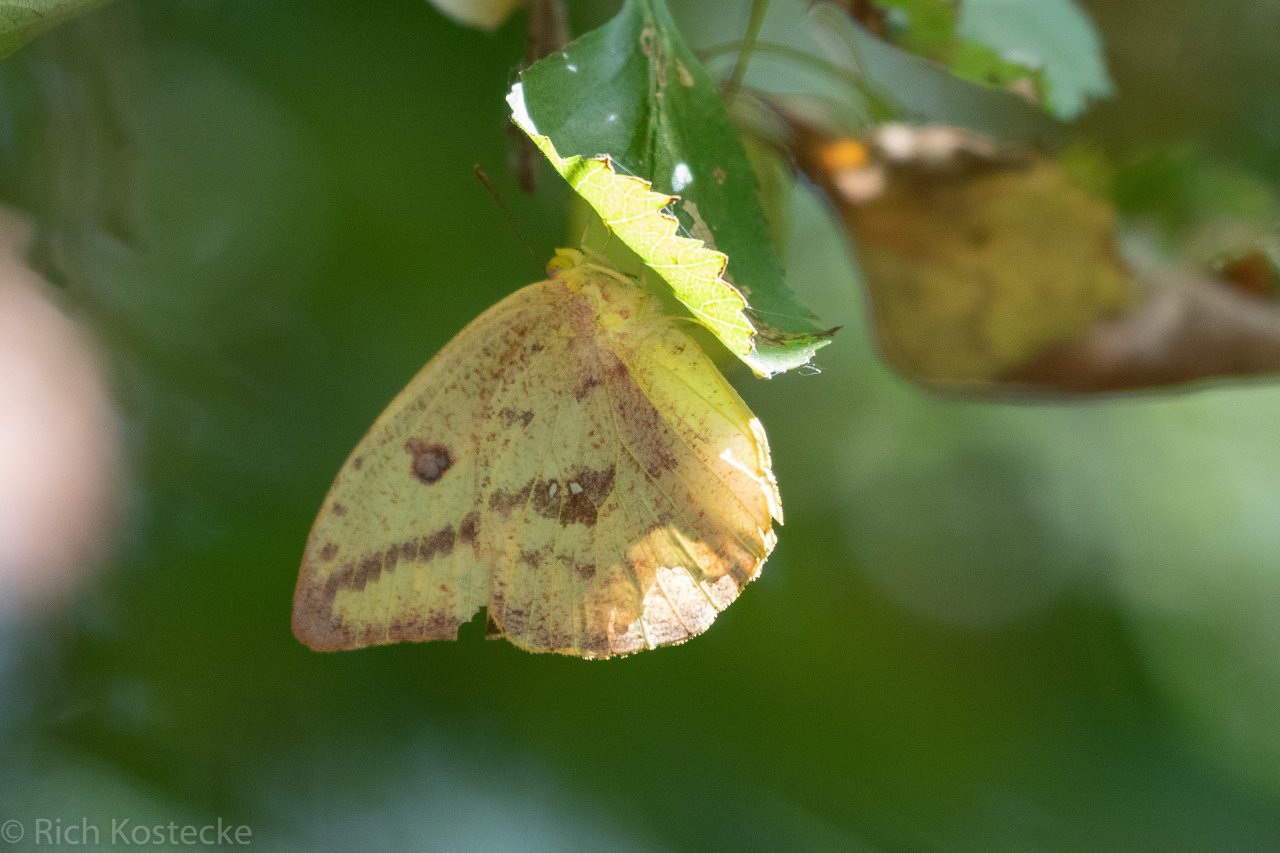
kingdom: Animalia
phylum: Arthropoda
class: Insecta
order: Lepidoptera
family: Pieridae
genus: Phoebis
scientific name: Phoebis agarithe
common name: Large Orange Sulphur
